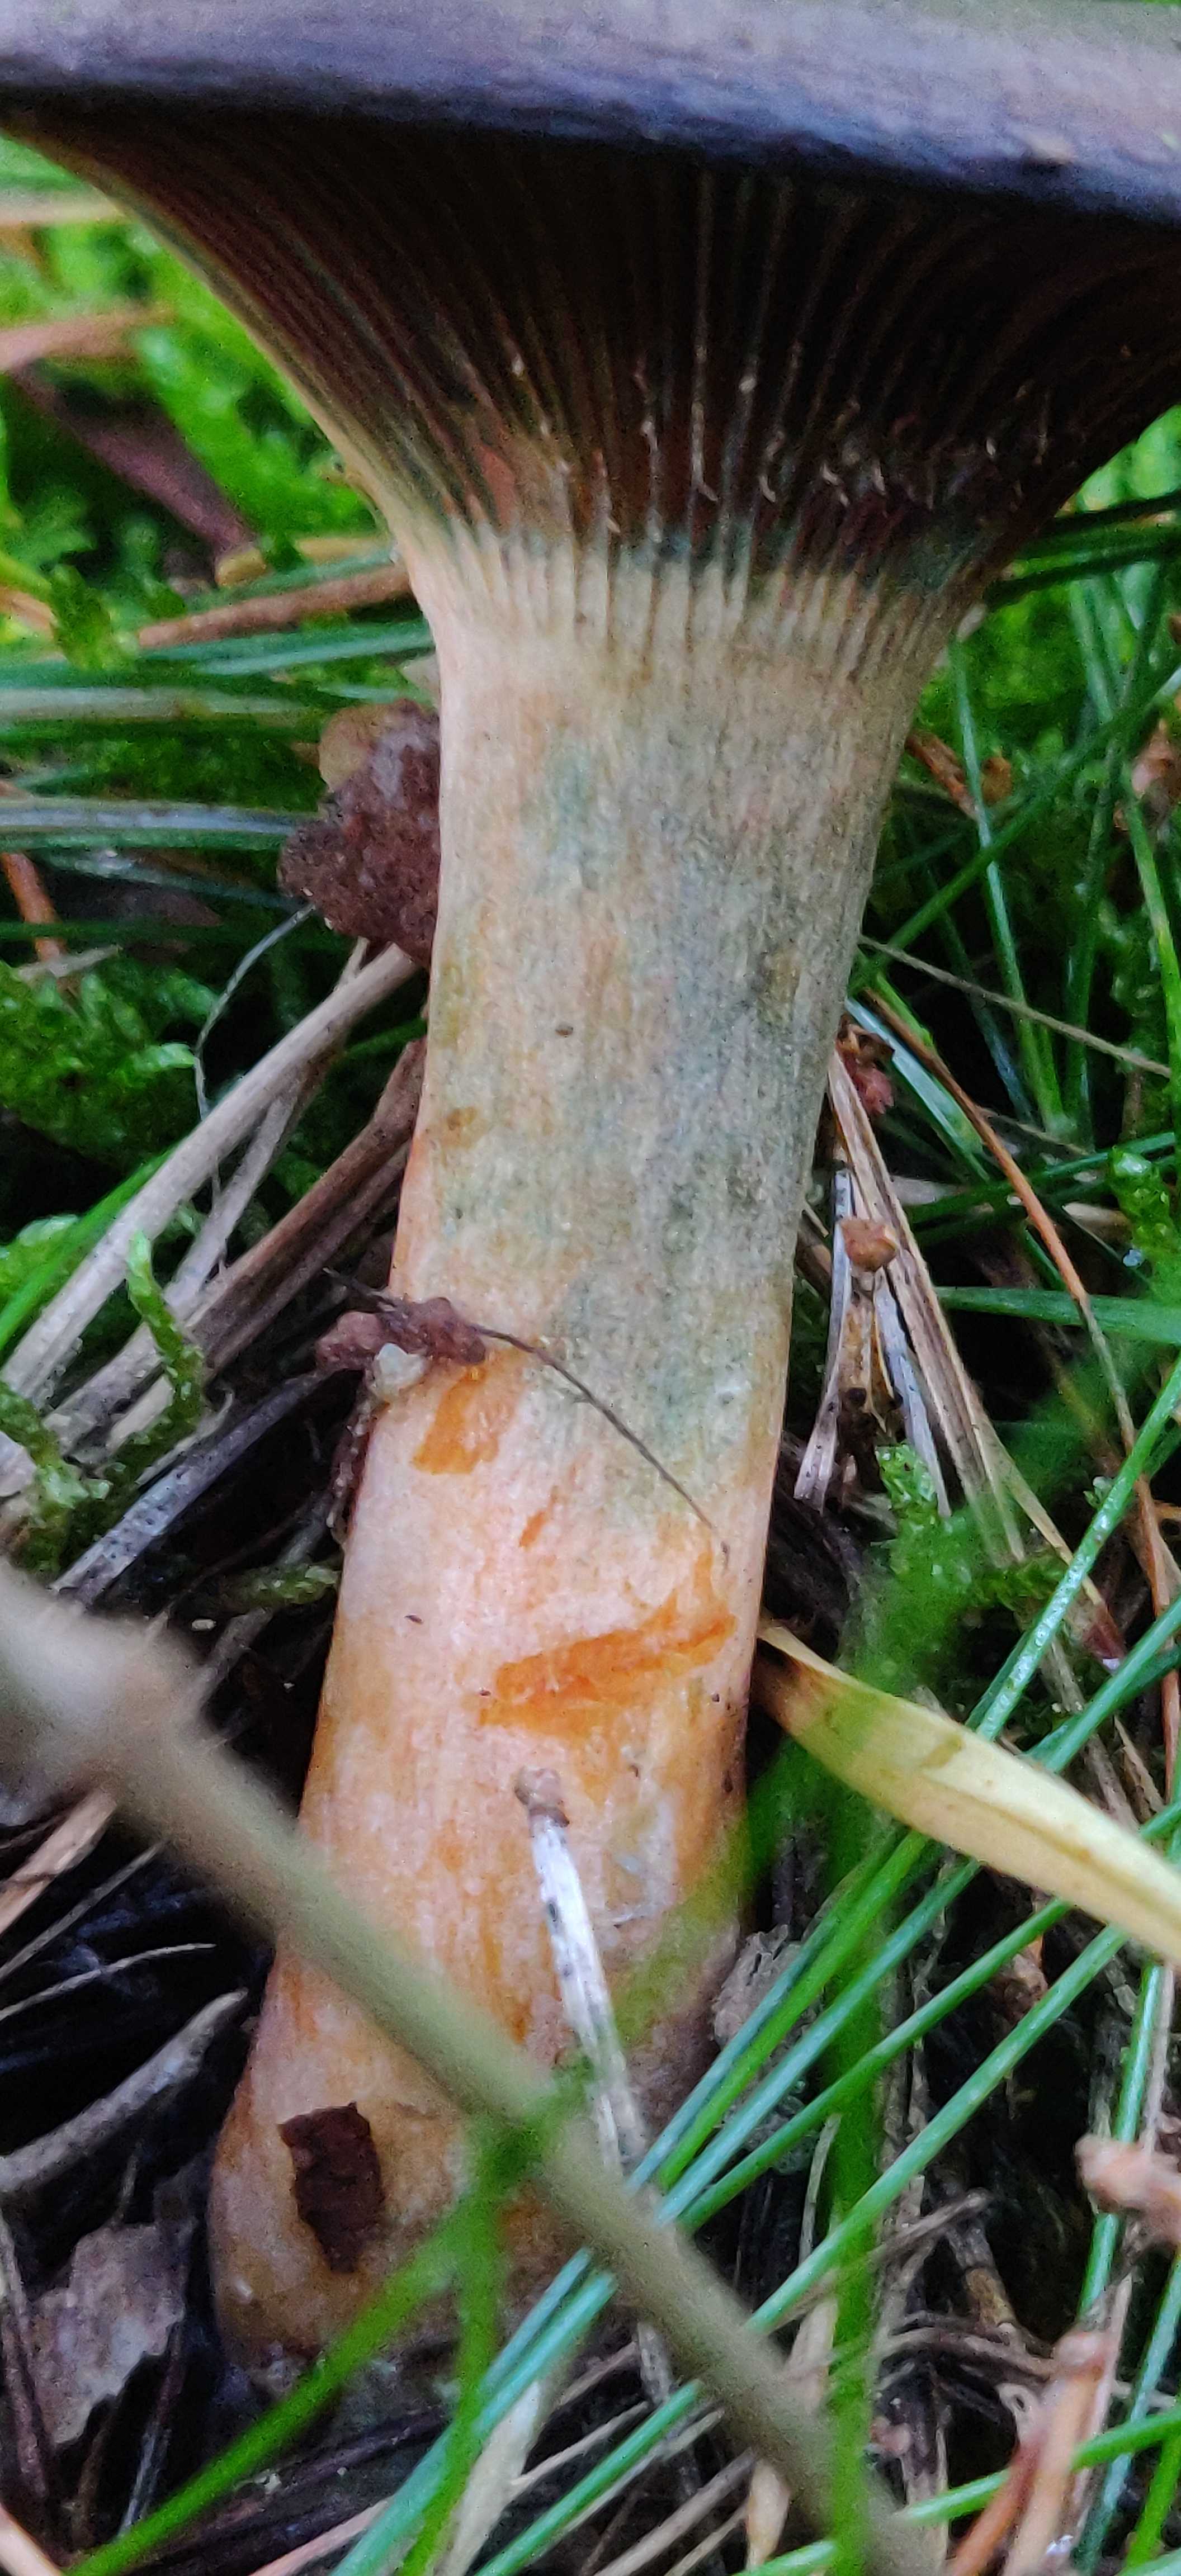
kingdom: Fungi
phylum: Basidiomycota
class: Agaricomycetes
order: Russulales
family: Russulaceae
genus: Lactarius
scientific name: Lactarius quieticolor
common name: tvefarvet mælkehat
